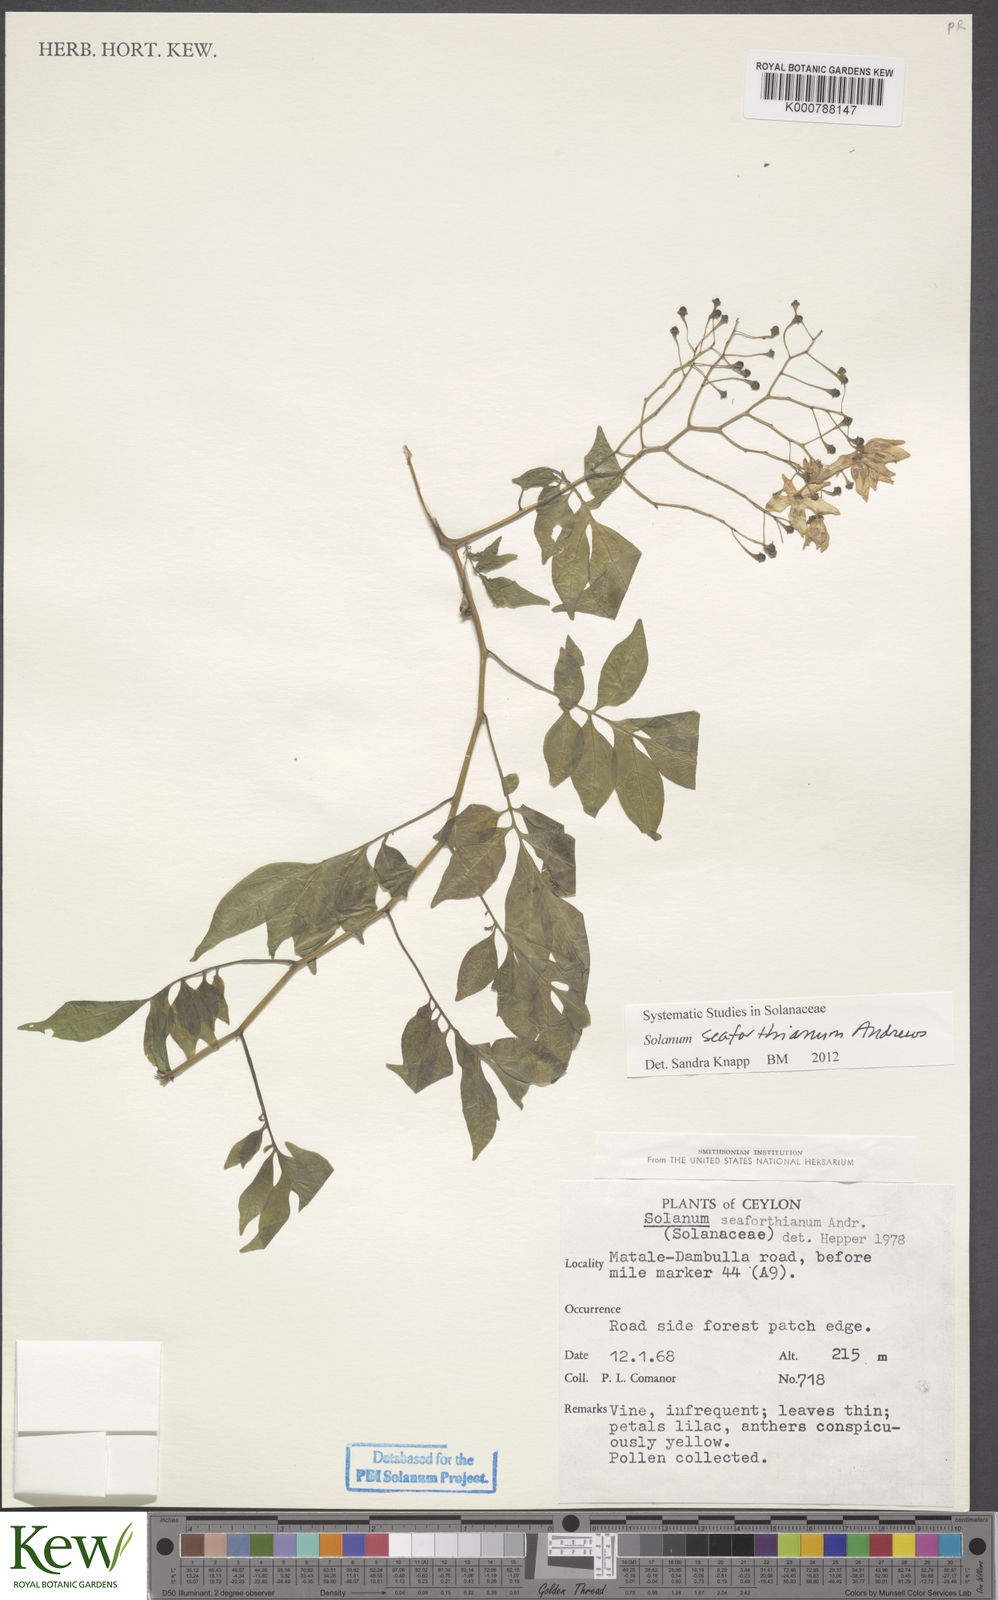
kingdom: Plantae
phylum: Tracheophyta
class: Magnoliopsida
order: Solanales
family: Solanaceae
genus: Solanum
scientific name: Solanum seaforthianum
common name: Brazilian nightshade
